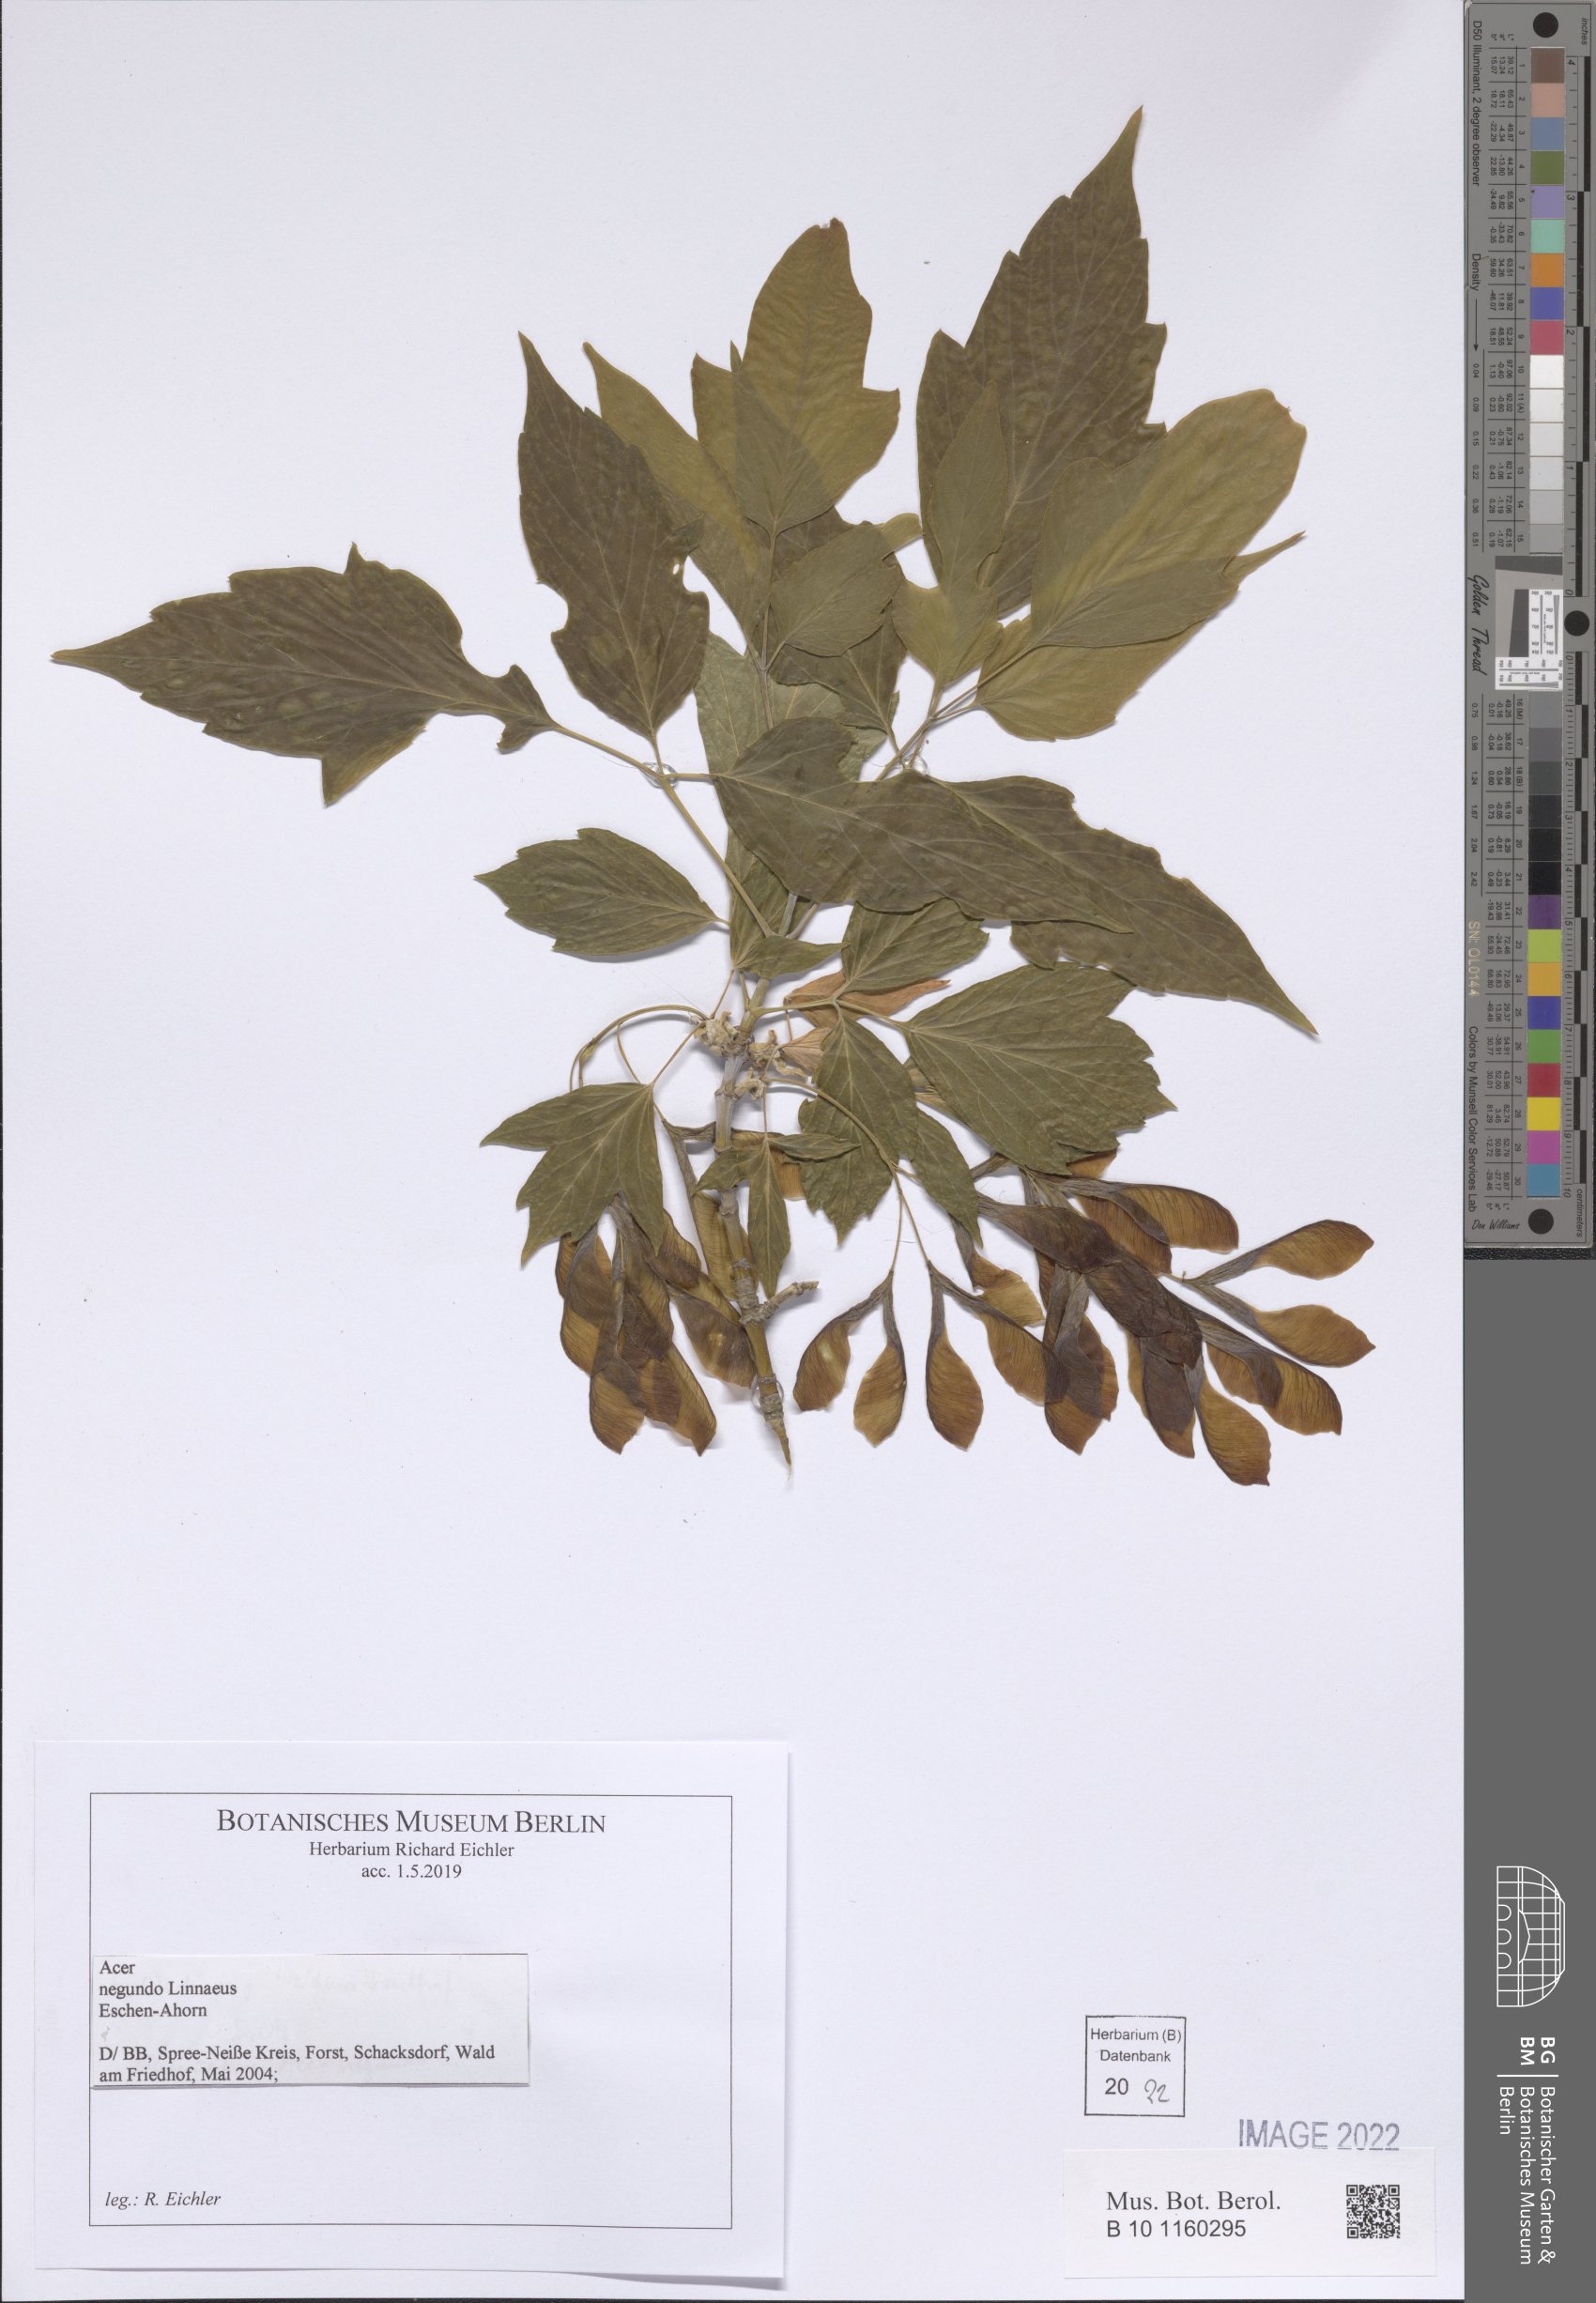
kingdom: Plantae
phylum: Tracheophyta
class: Magnoliopsida
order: Sapindales
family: Sapindaceae
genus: Acer
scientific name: Acer negundo
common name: Ashleaf maple
